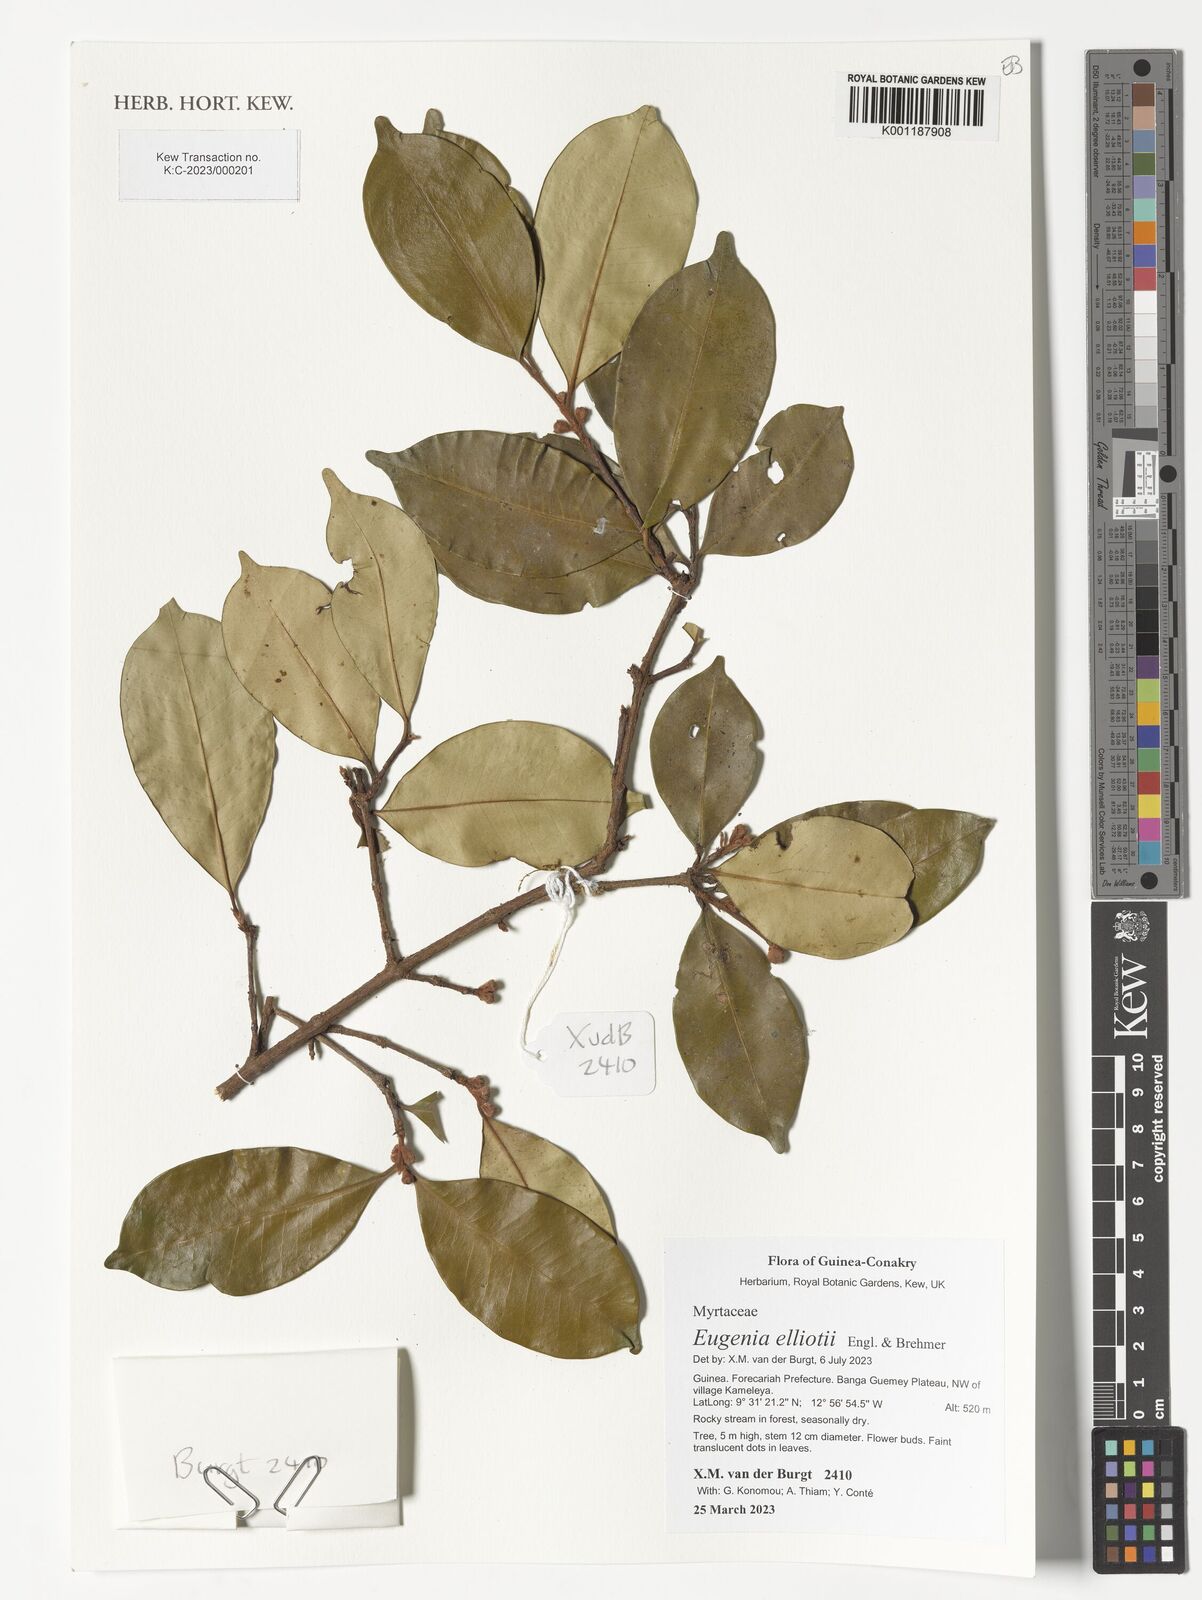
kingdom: Plantae
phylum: Tracheophyta
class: Magnoliopsida
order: Myrtales
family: Myrtaceae
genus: Eugenia
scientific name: Eugenia elliotii
